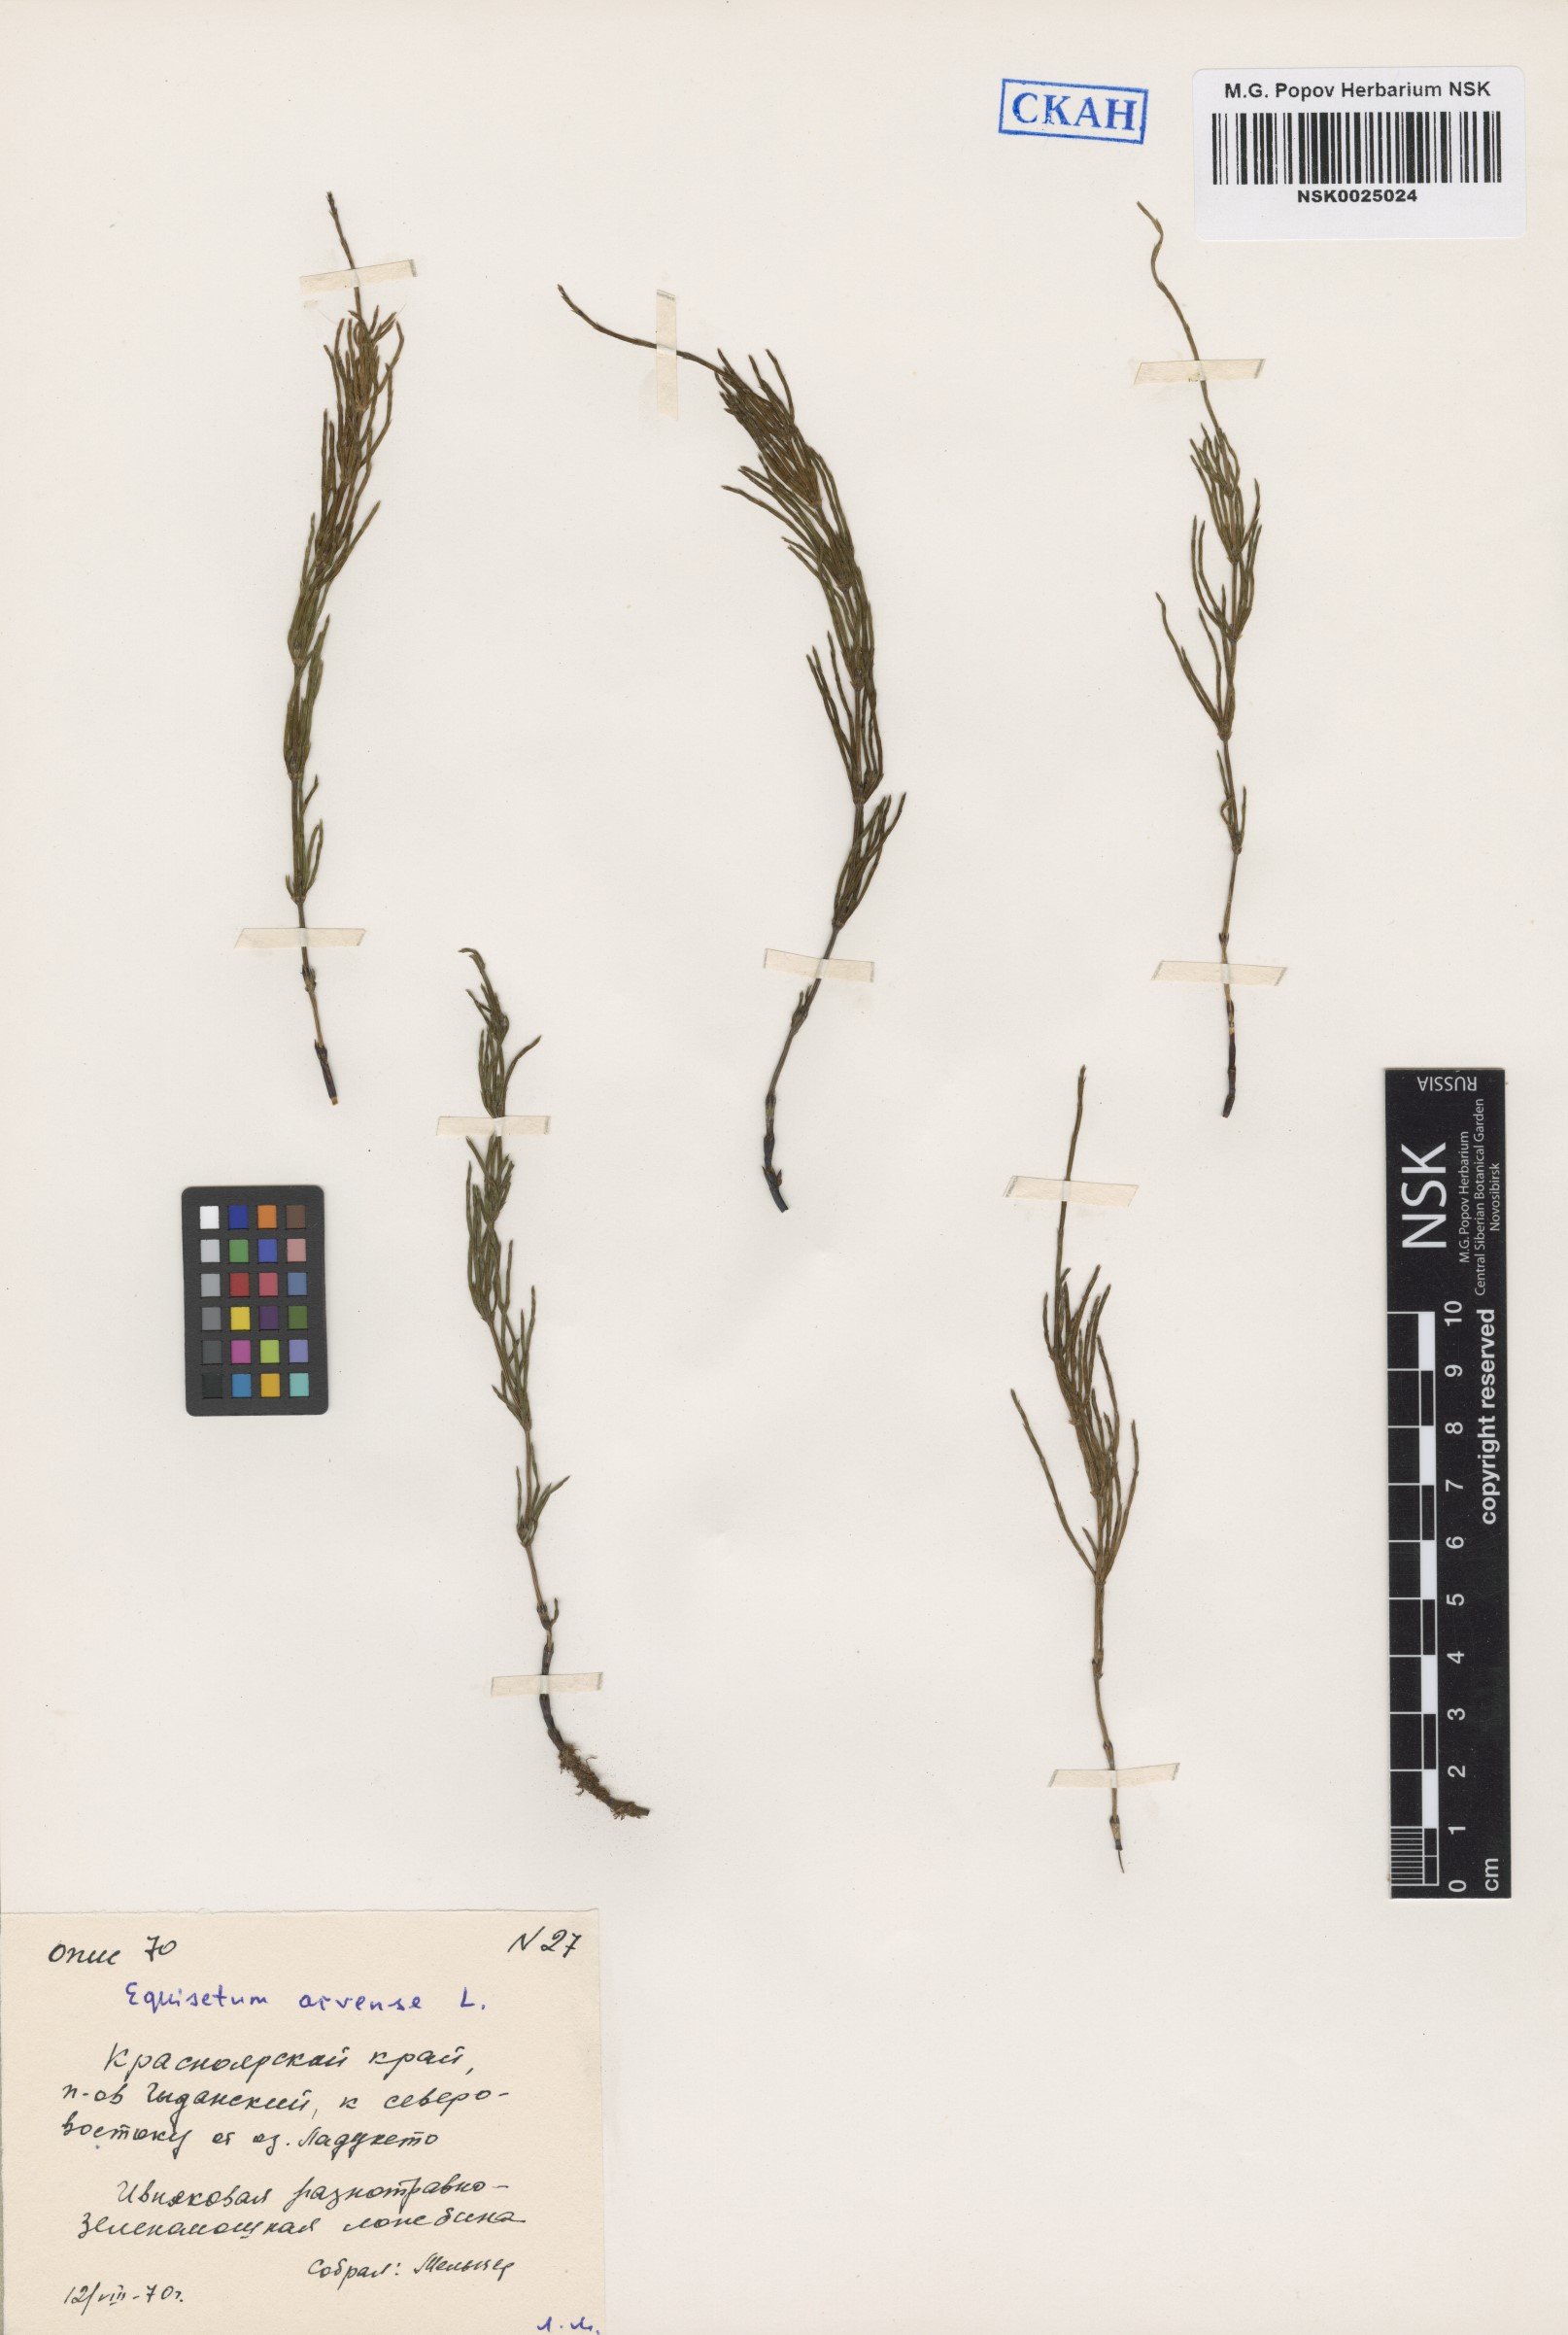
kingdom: Plantae
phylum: Tracheophyta
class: Polypodiopsida
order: Equisetales
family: Equisetaceae
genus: Equisetum
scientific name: Equisetum arvense
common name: Field horsetail
